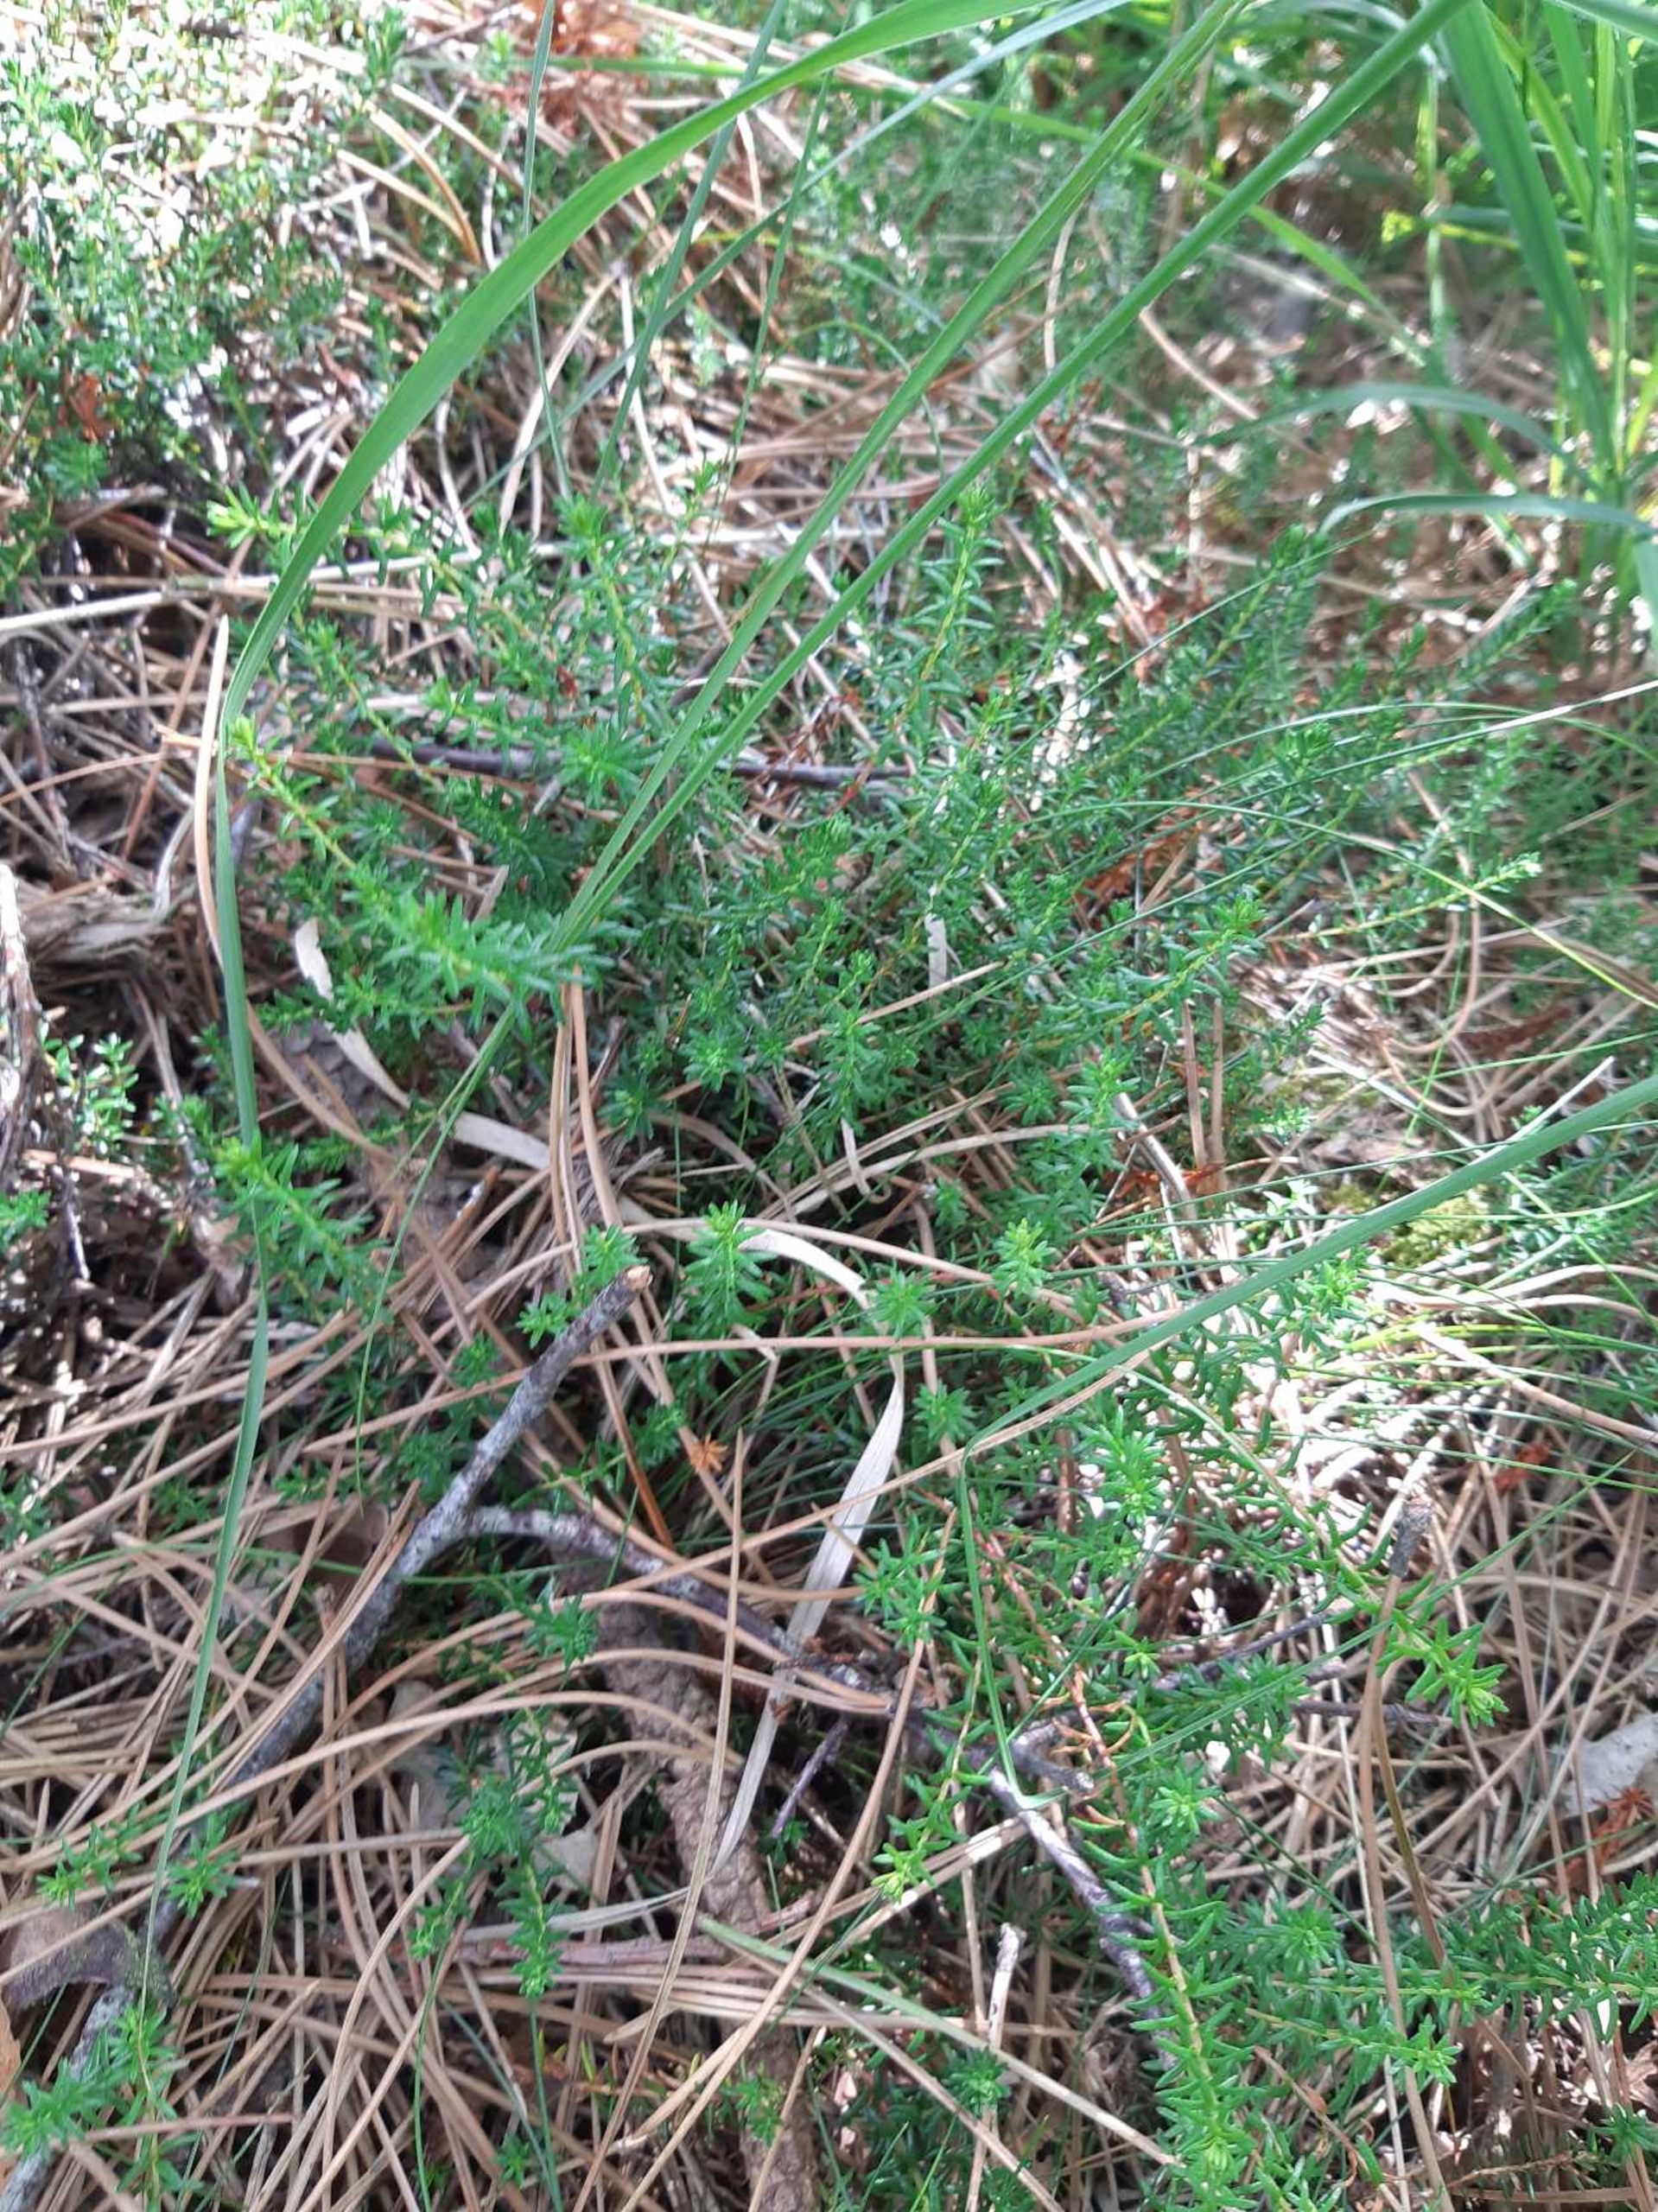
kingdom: Plantae
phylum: Tracheophyta
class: Magnoliopsida
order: Ericales
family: Ericaceae
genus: Empetrum
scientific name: Empetrum nigrum
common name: Revling
